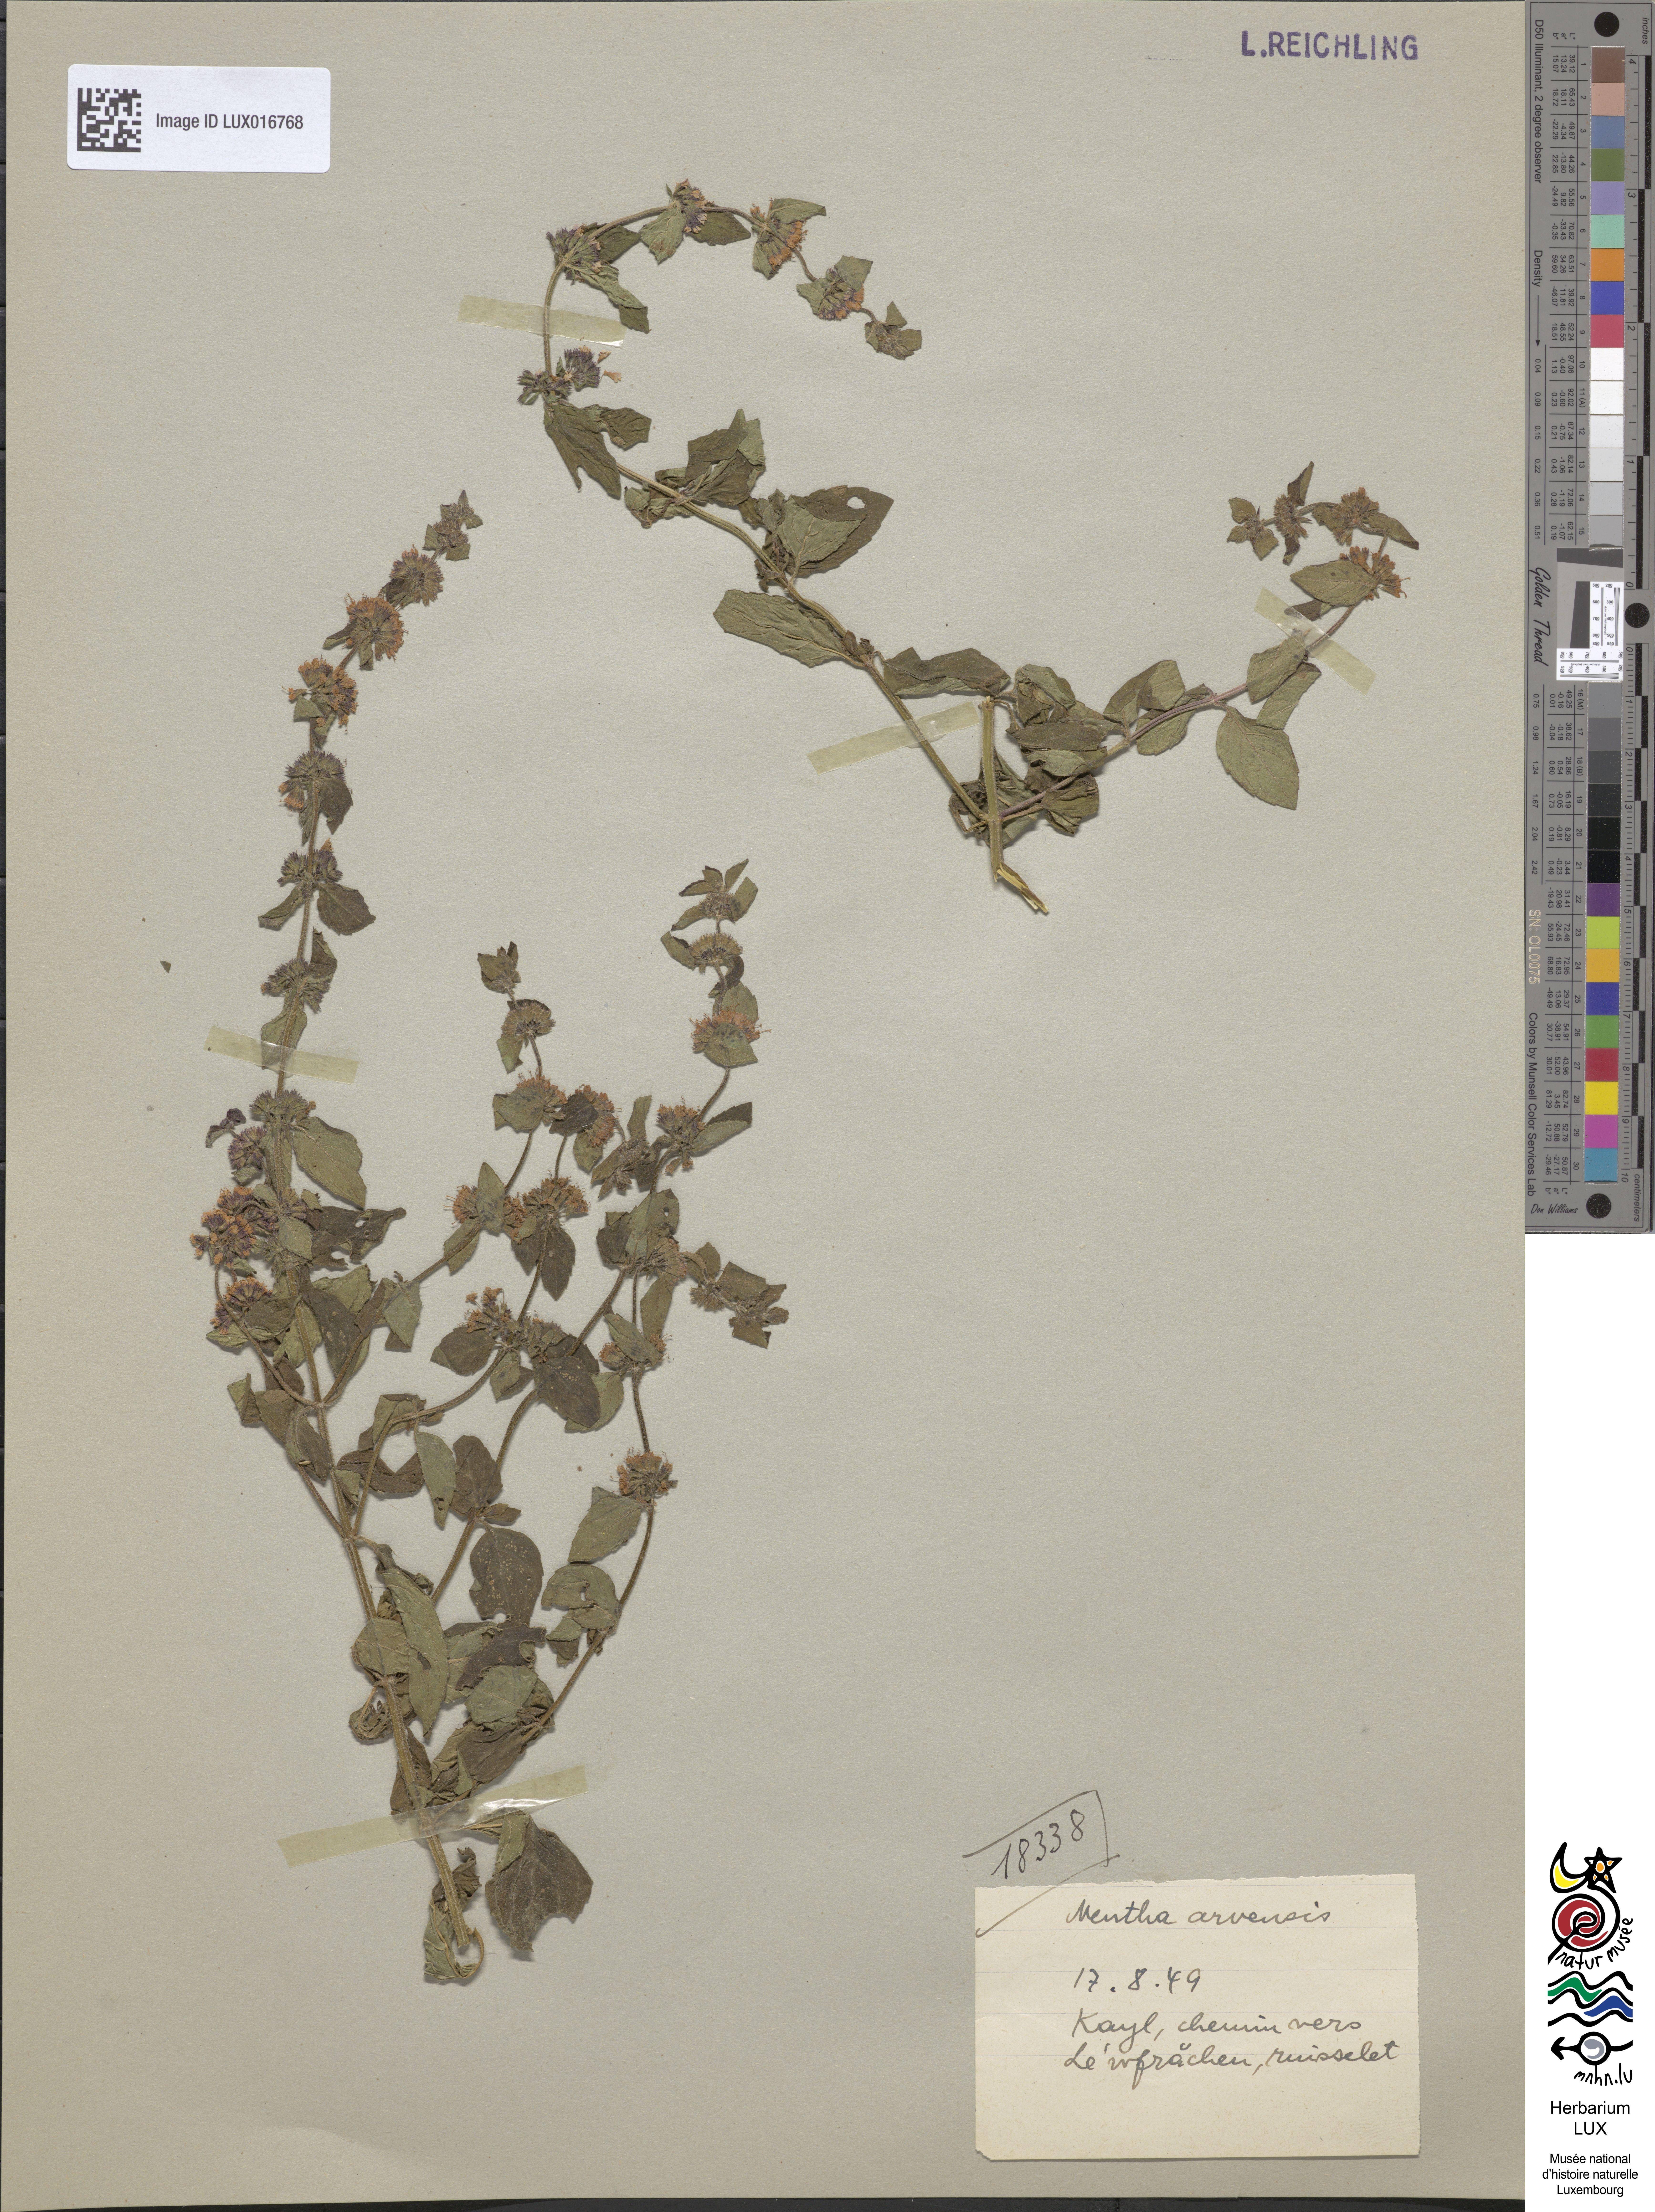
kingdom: Plantae
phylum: Tracheophyta
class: Magnoliopsida
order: Lamiales
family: Lamiaceae
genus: Mentha
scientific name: Mentha arvensis
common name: Corn mint
